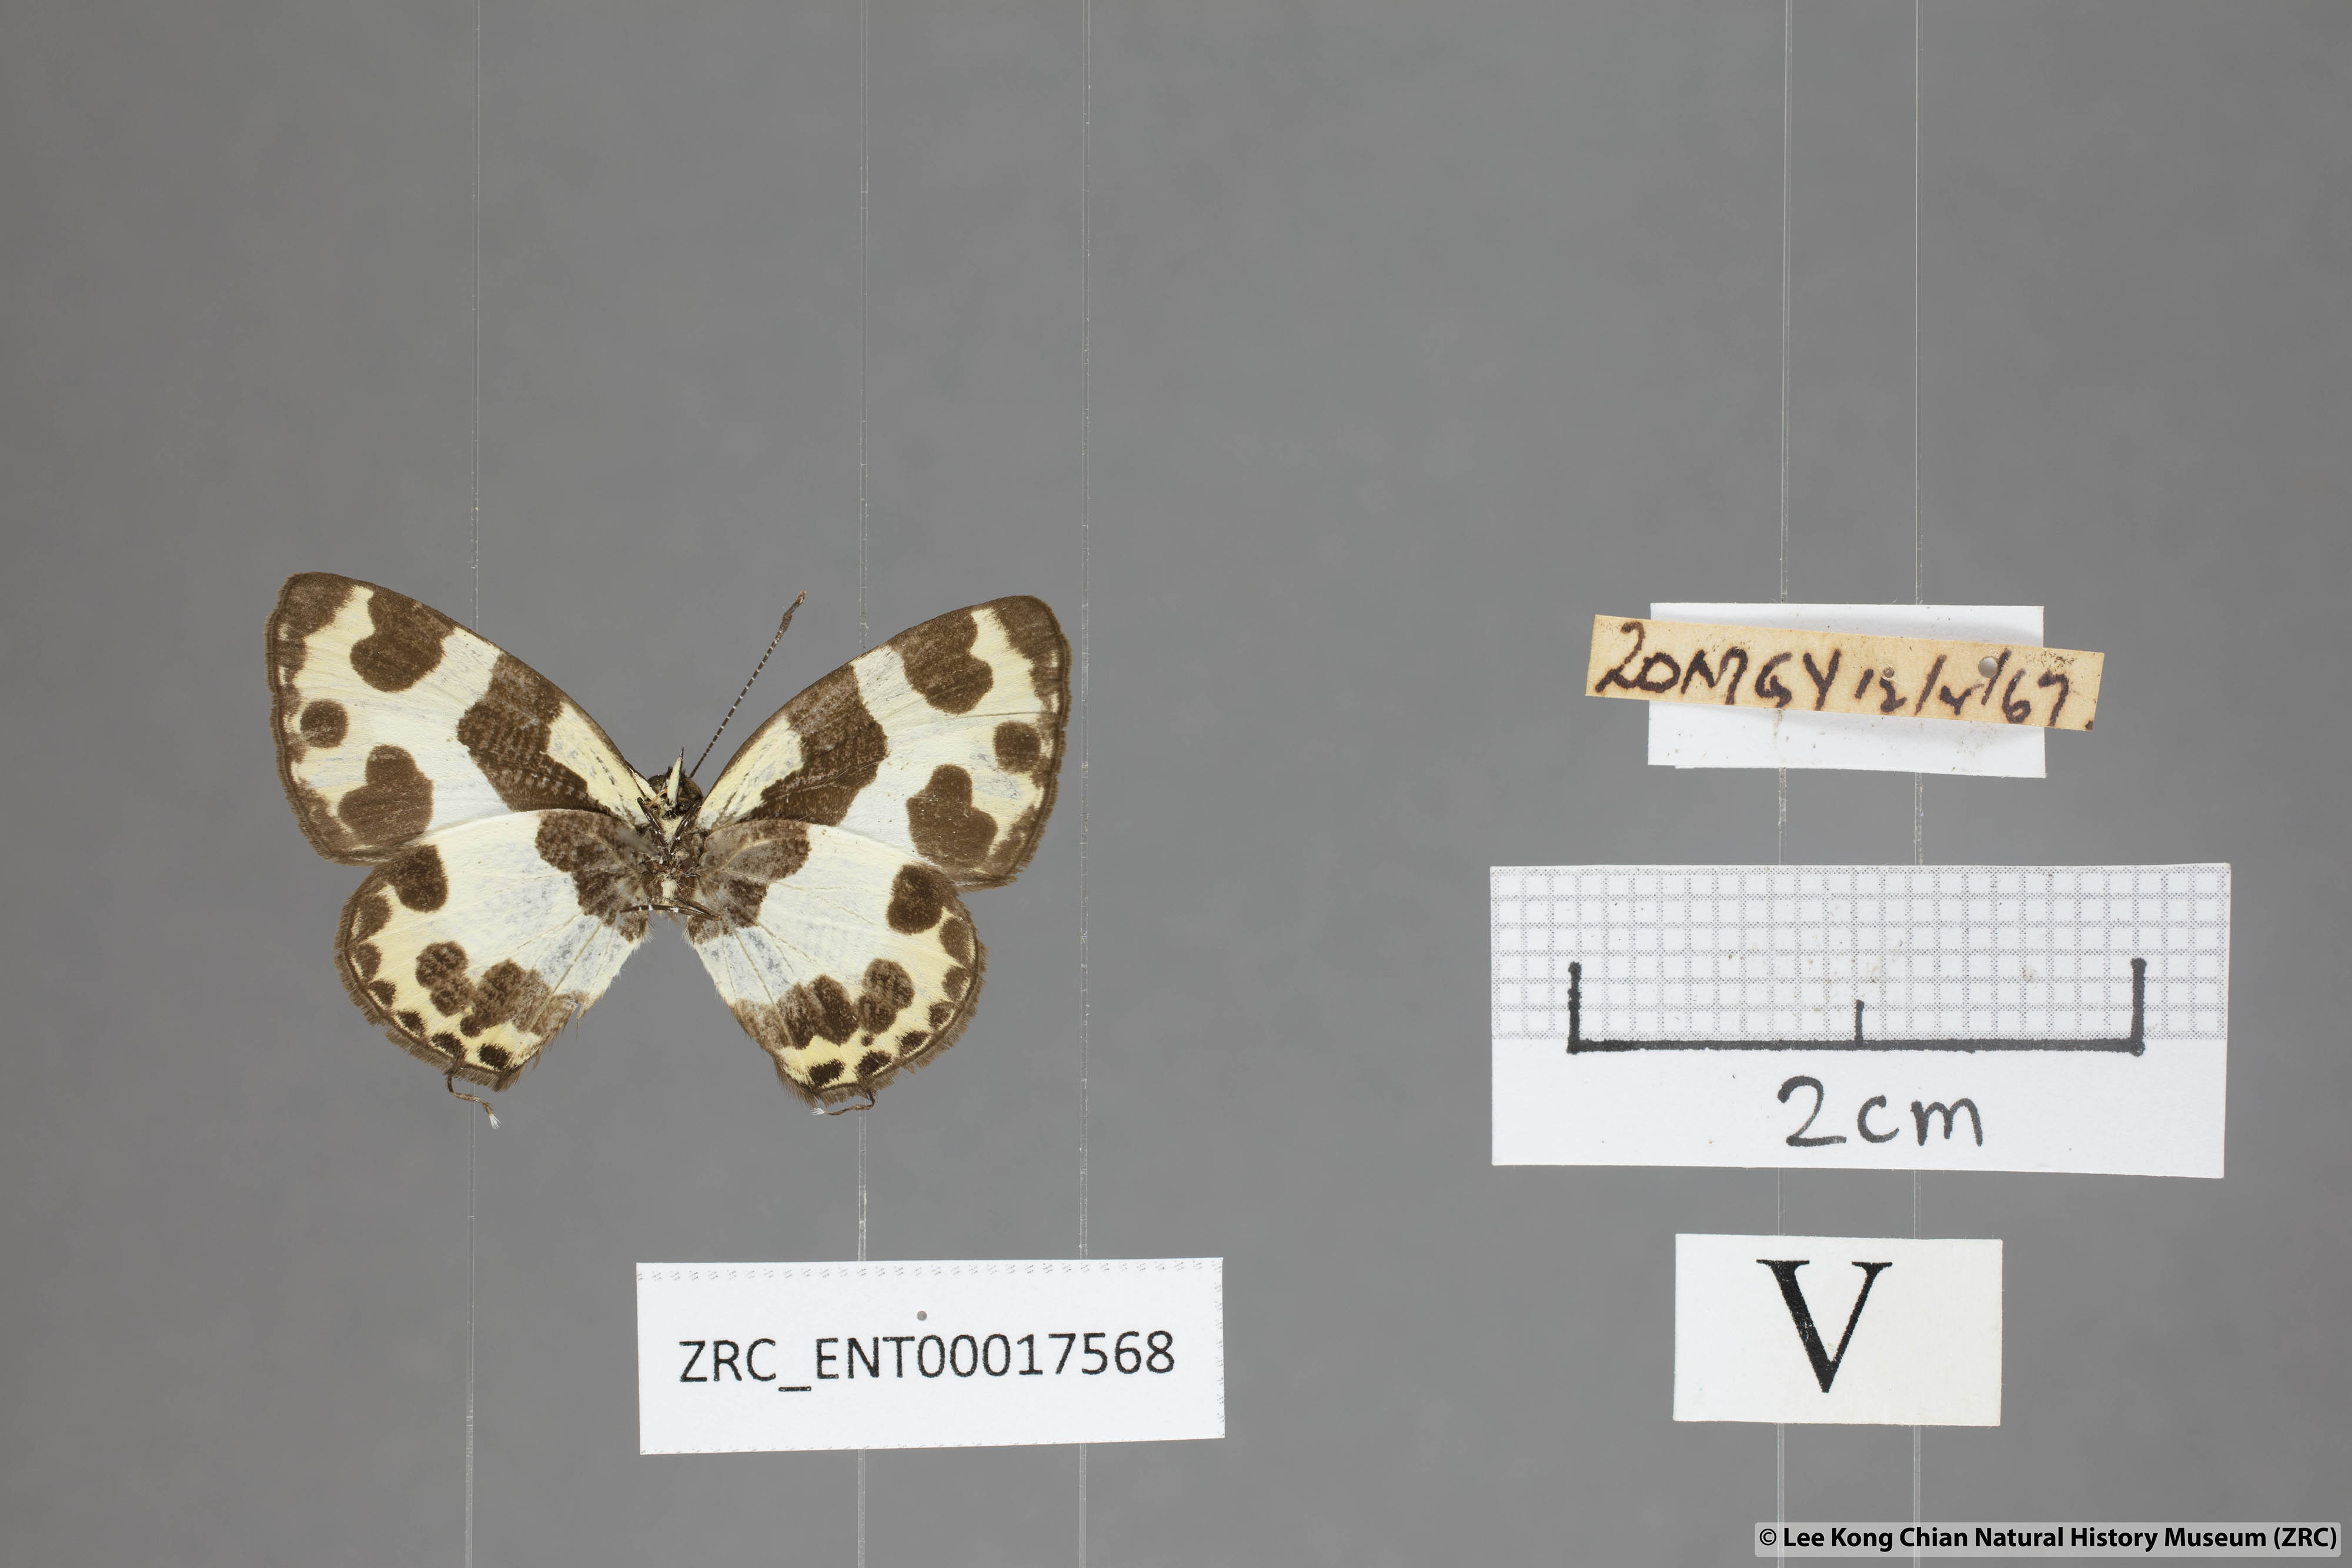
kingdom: Animalia
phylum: Arthropoda
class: Insecta
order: Lepidoptera
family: Lycaenidae
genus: Caleta
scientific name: Caleta elna
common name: Elbowed pierrot
